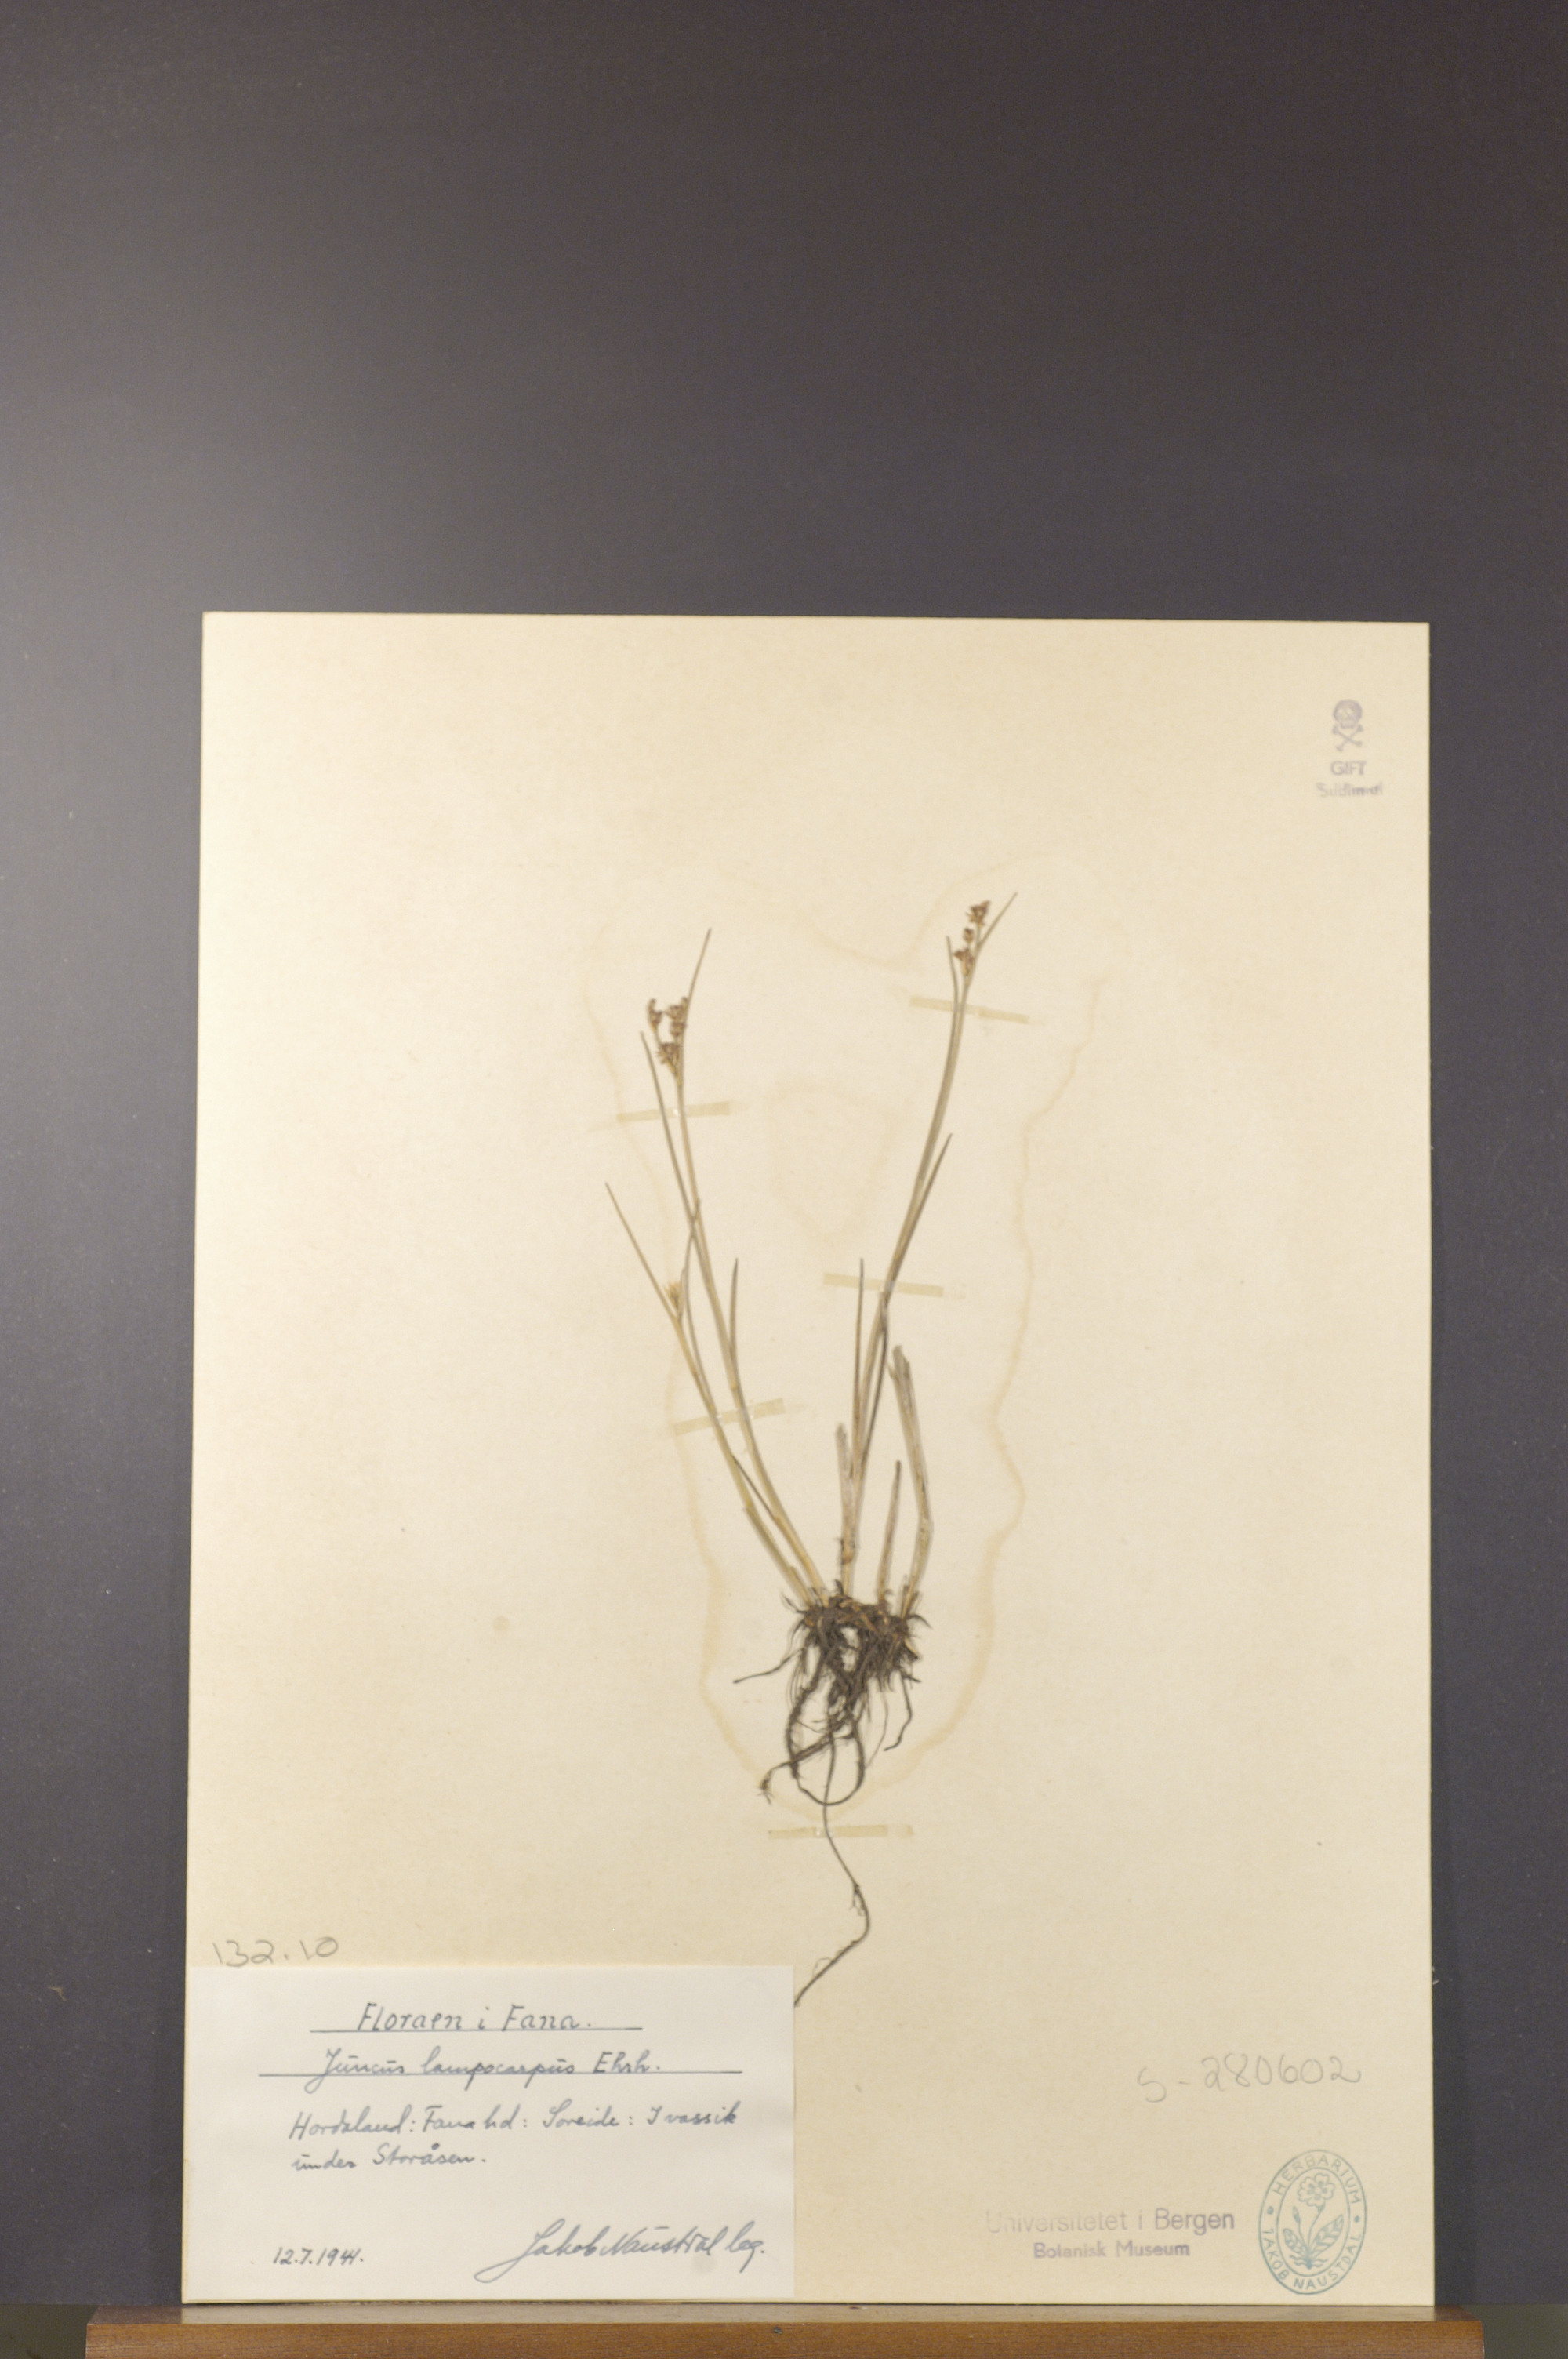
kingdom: Plantae
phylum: Tracheophyta
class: Liliopsida
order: Poales
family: Juncaceae
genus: Juncus
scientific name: Juncus articulatus
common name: Jointed rush
